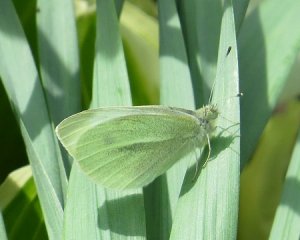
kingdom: Animalia
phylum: Arthropoda
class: Insecta
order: Lepidoptera
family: Pieridae
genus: Pieris
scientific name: Pieris rapae
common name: Cabbage White
